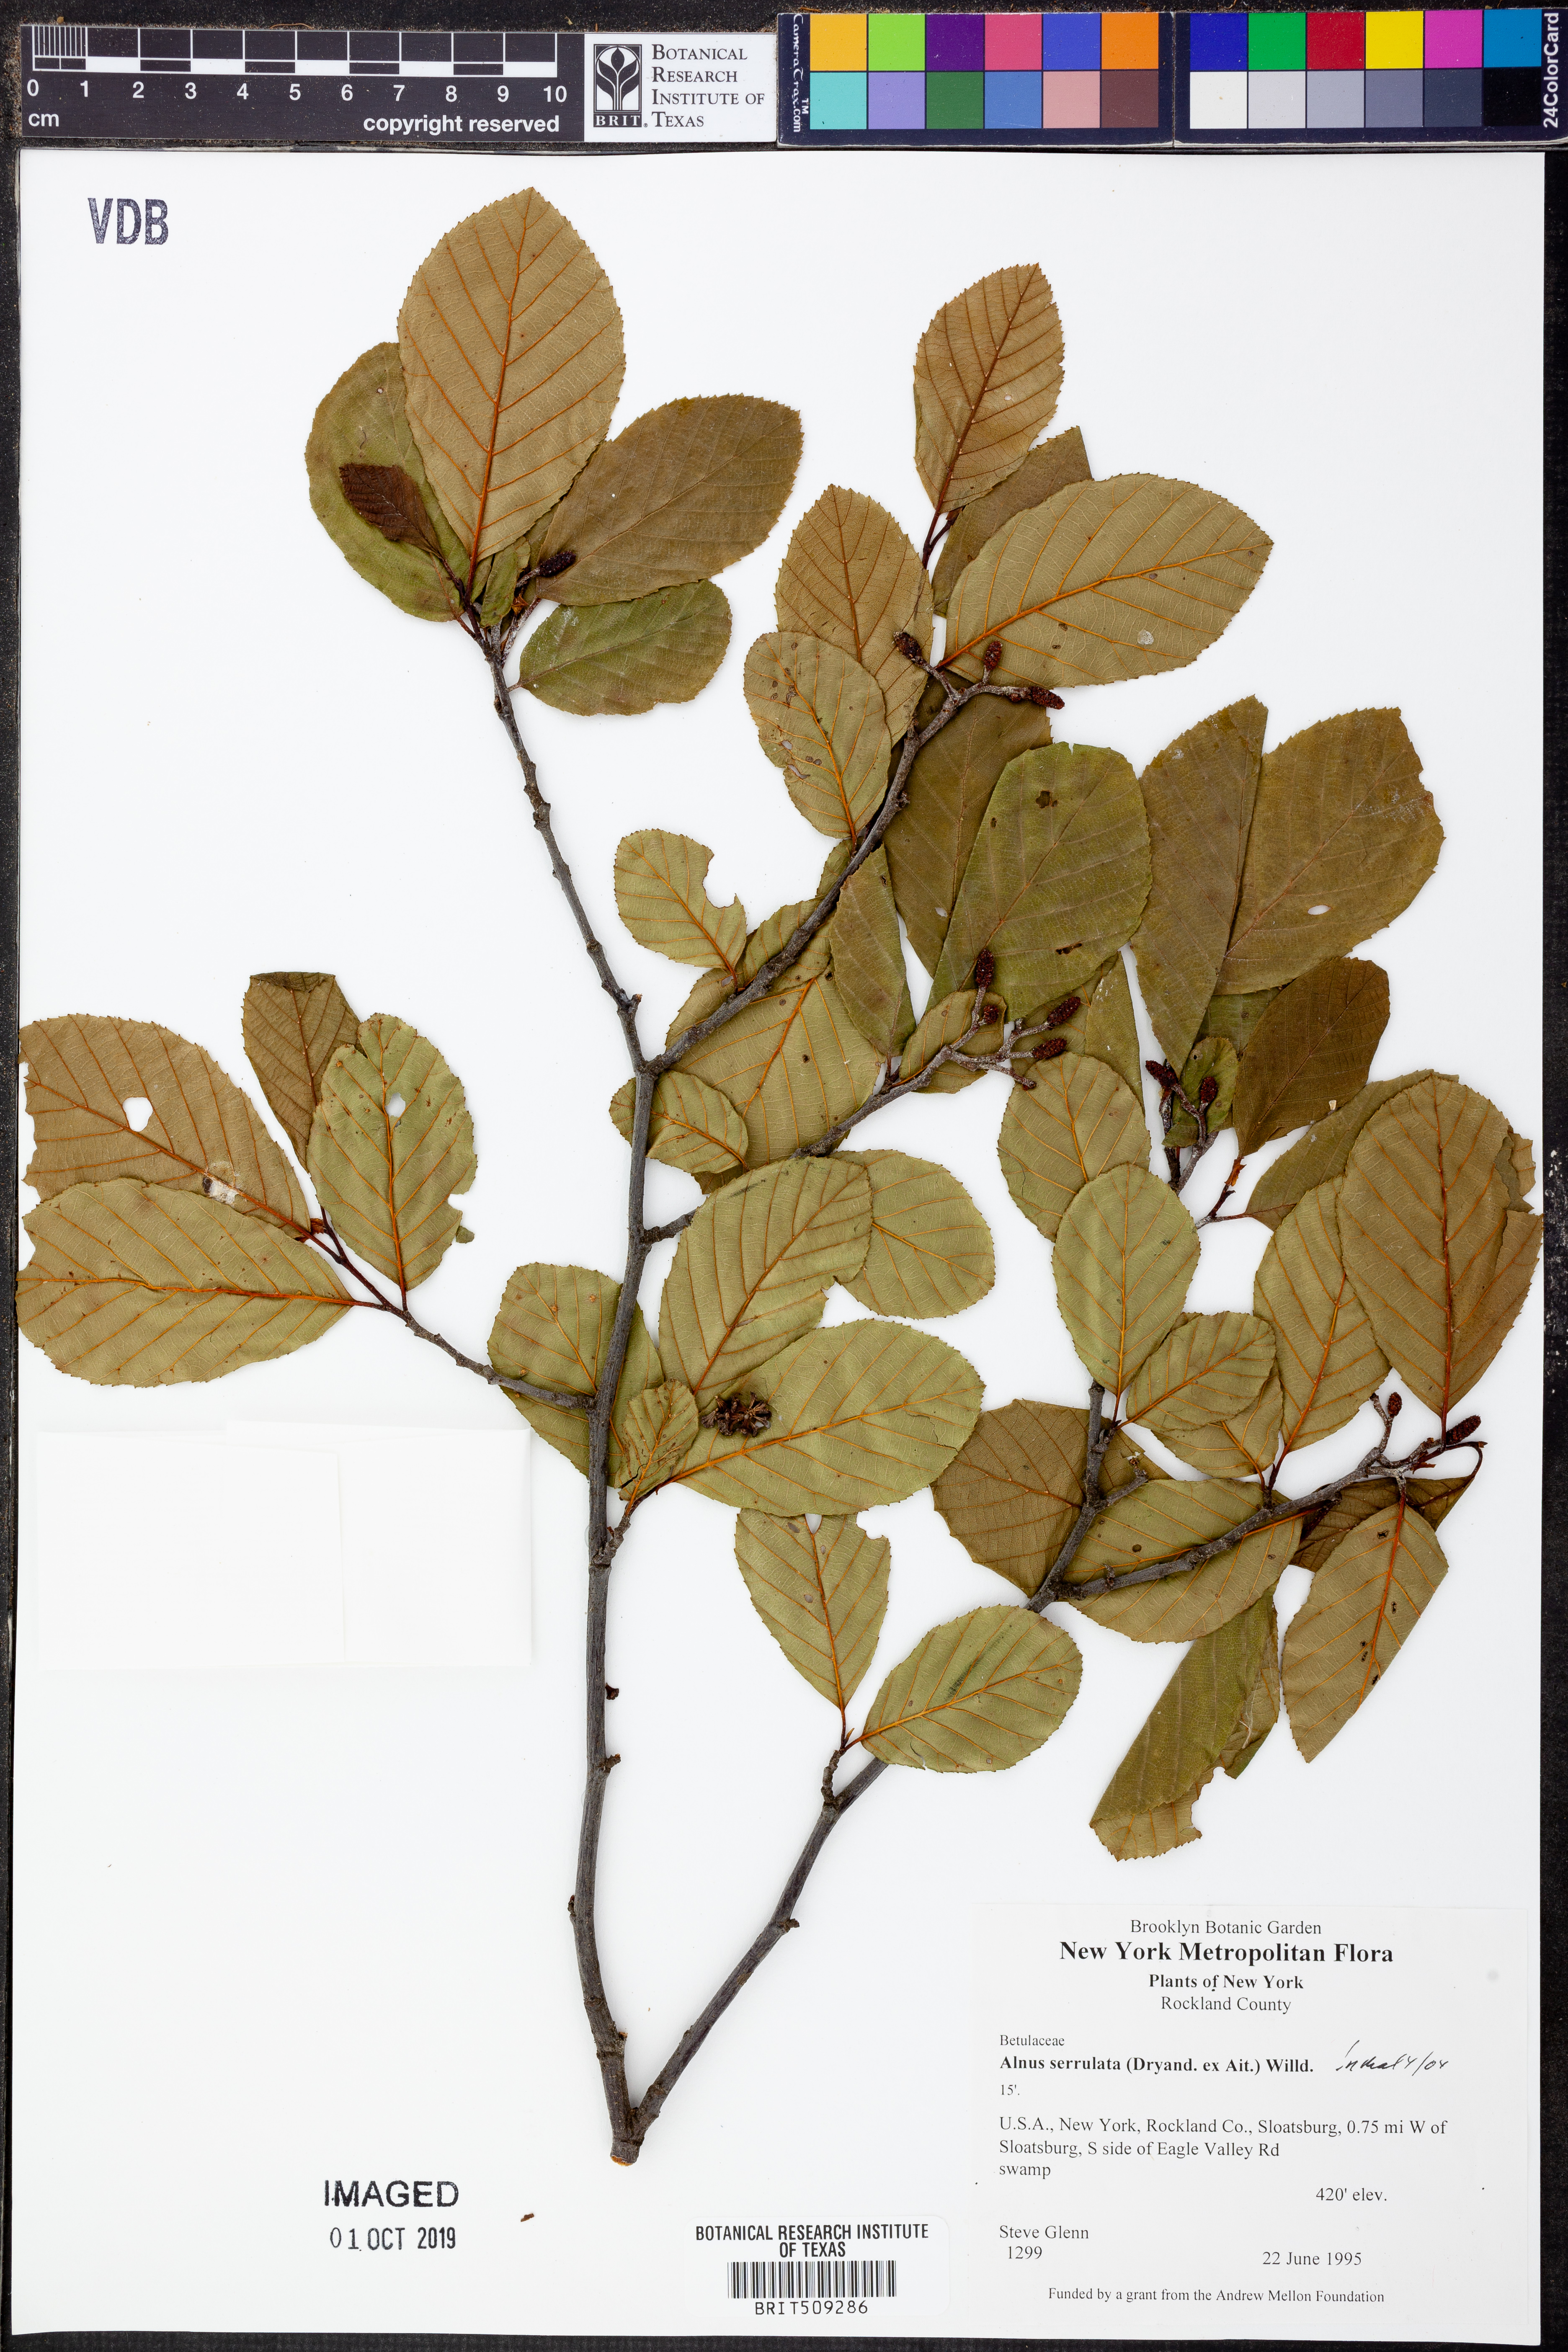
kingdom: Plantae
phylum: Tracheophyta
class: Magnoliopsida
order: Fagales
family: Betulaceae
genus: Alnus
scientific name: Alnus serrulata
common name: Hazel alder
